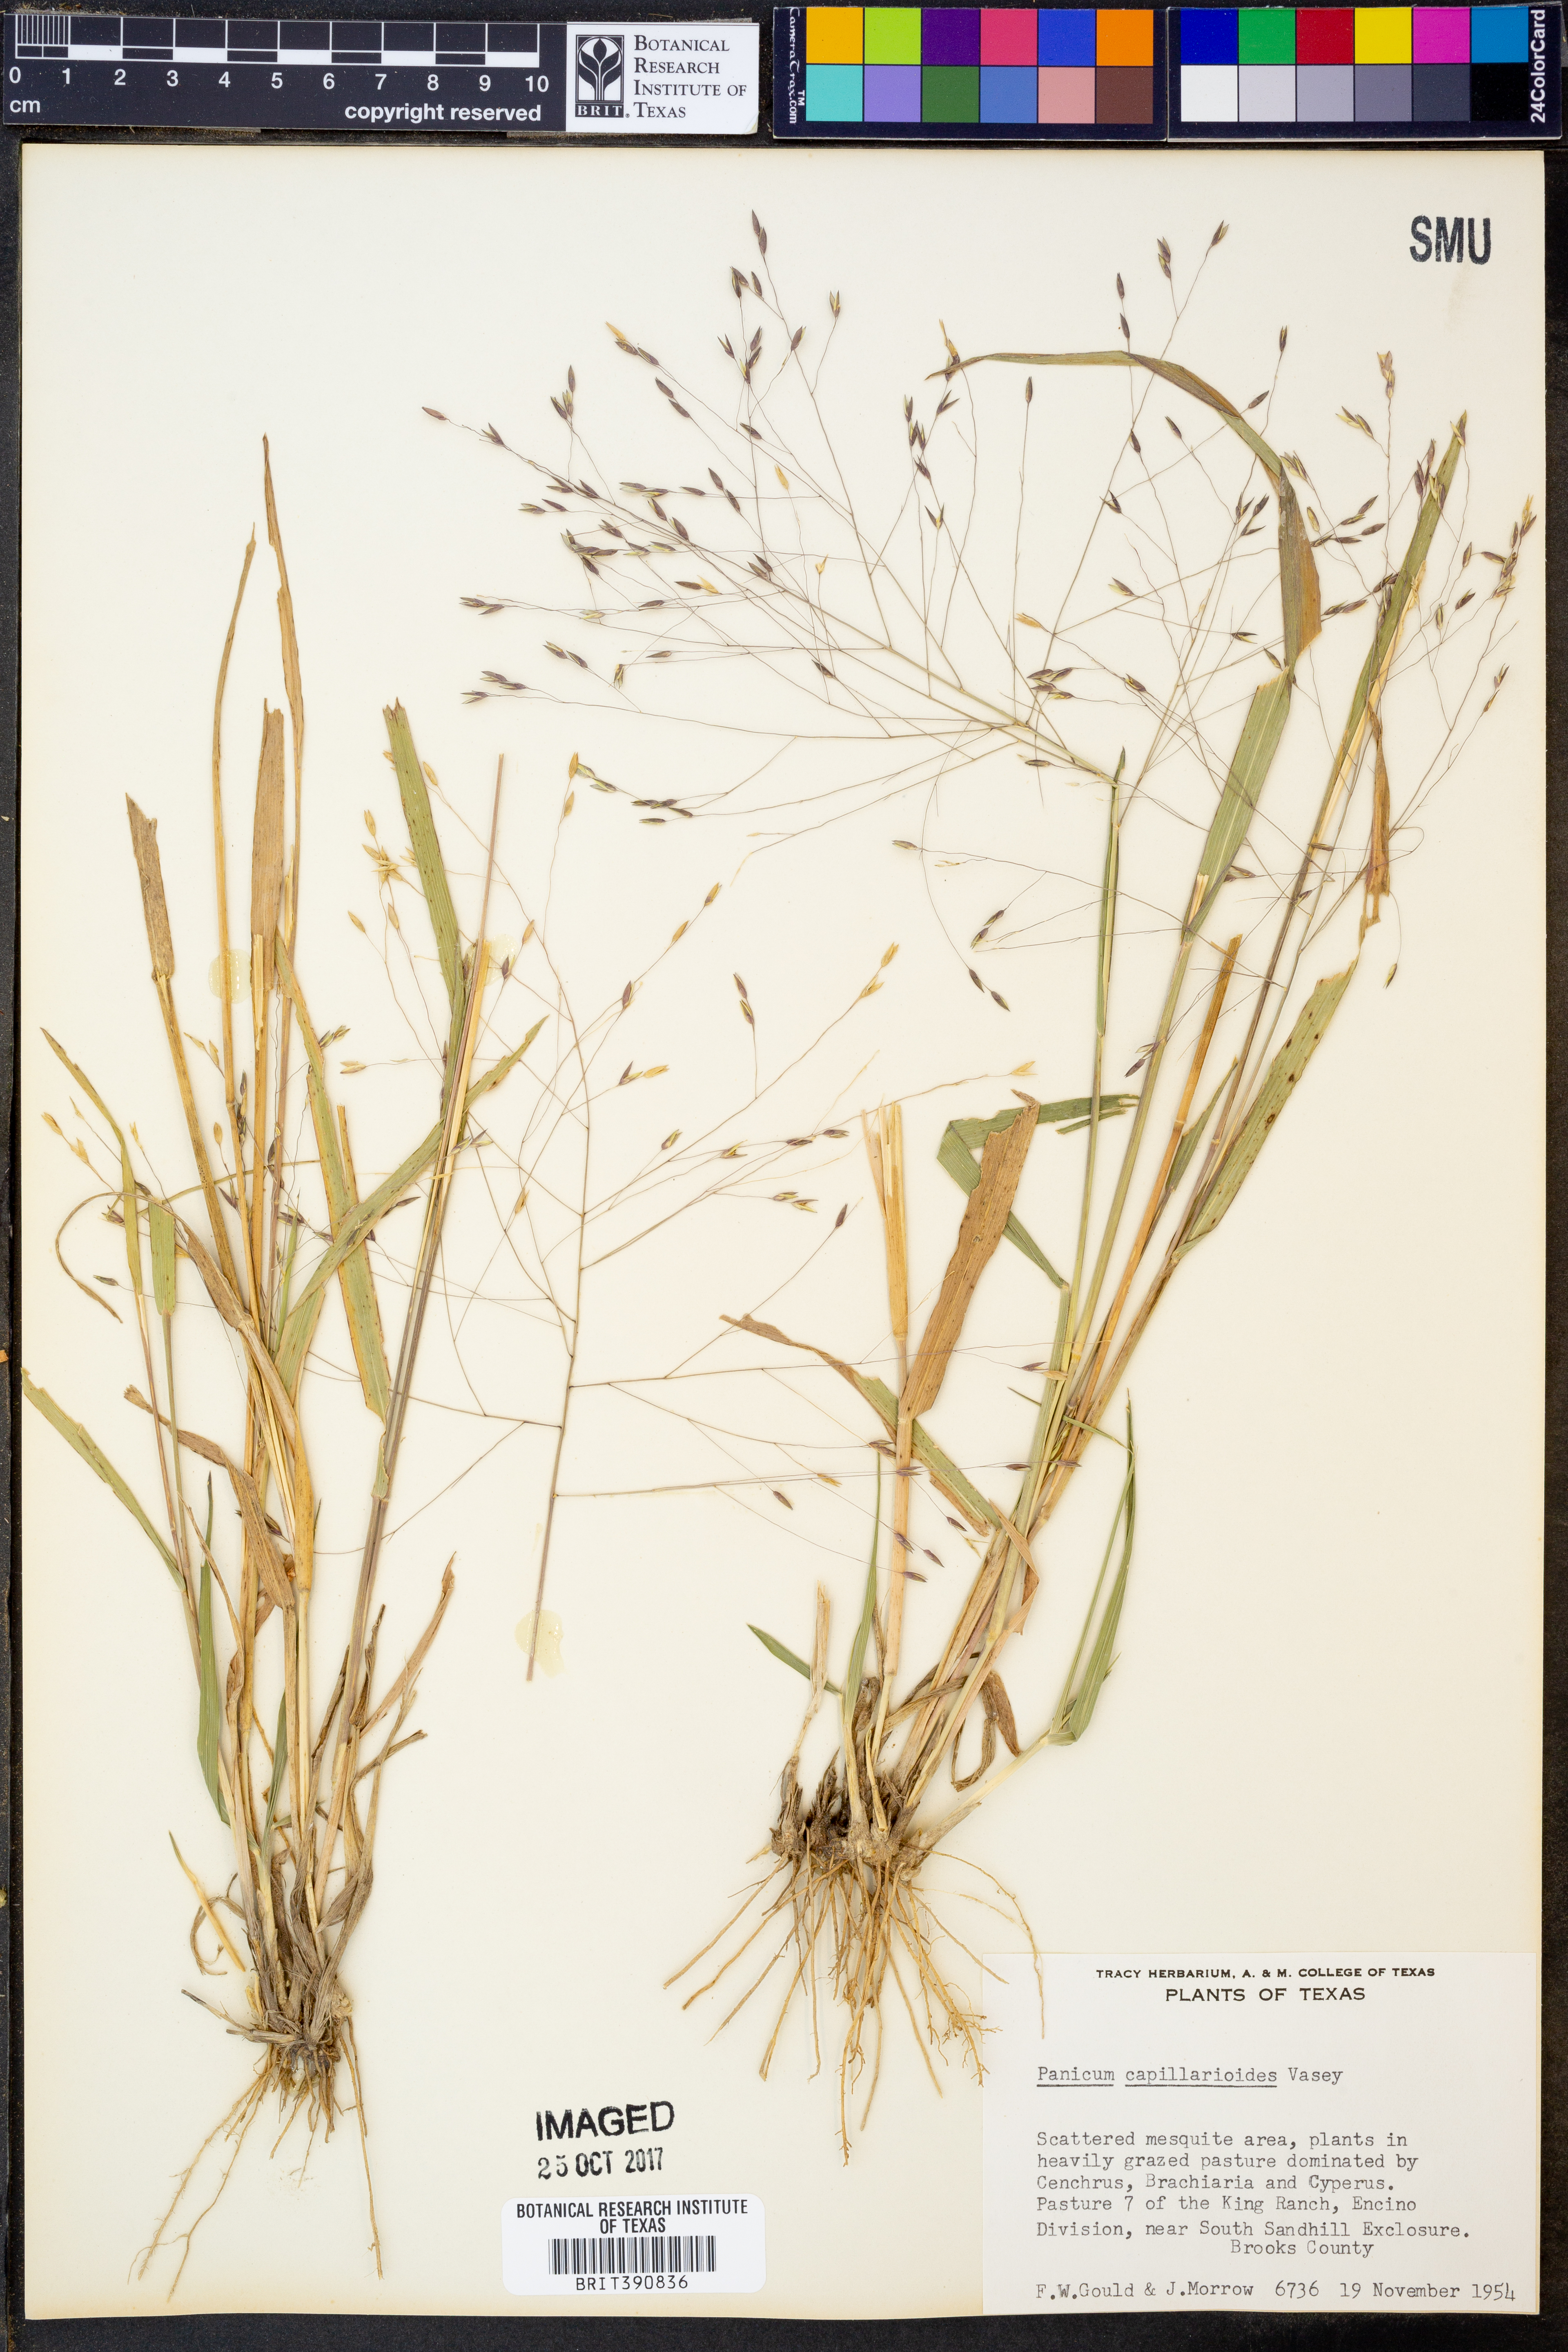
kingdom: Plantae
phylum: Tracheophyta
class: Liliopsida
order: Poales
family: Poaceae
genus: Panicum
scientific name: Panicum capillarioides
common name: Long-beak witchgrass
